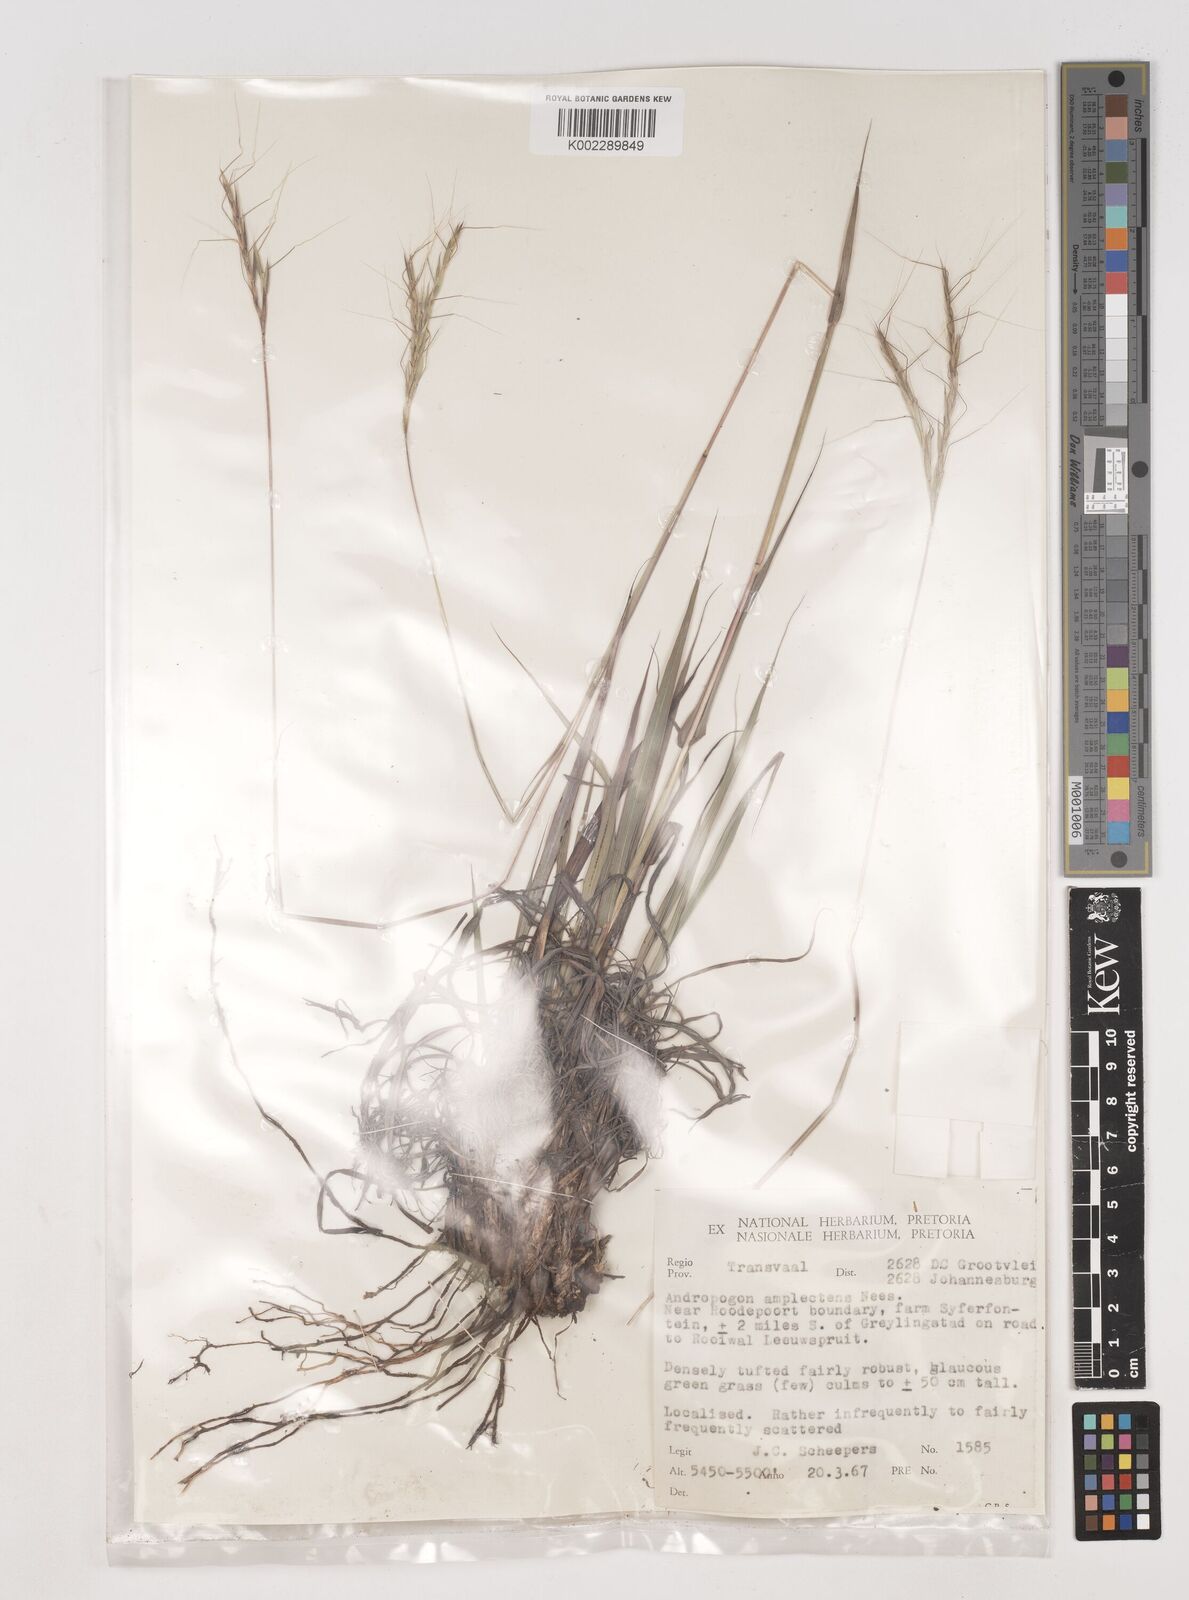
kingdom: Plantae
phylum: Tracheophyta
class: Liliopsida
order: Poales
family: Poaceae
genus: Diheteropogon
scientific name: Diheteropogon amplectens
